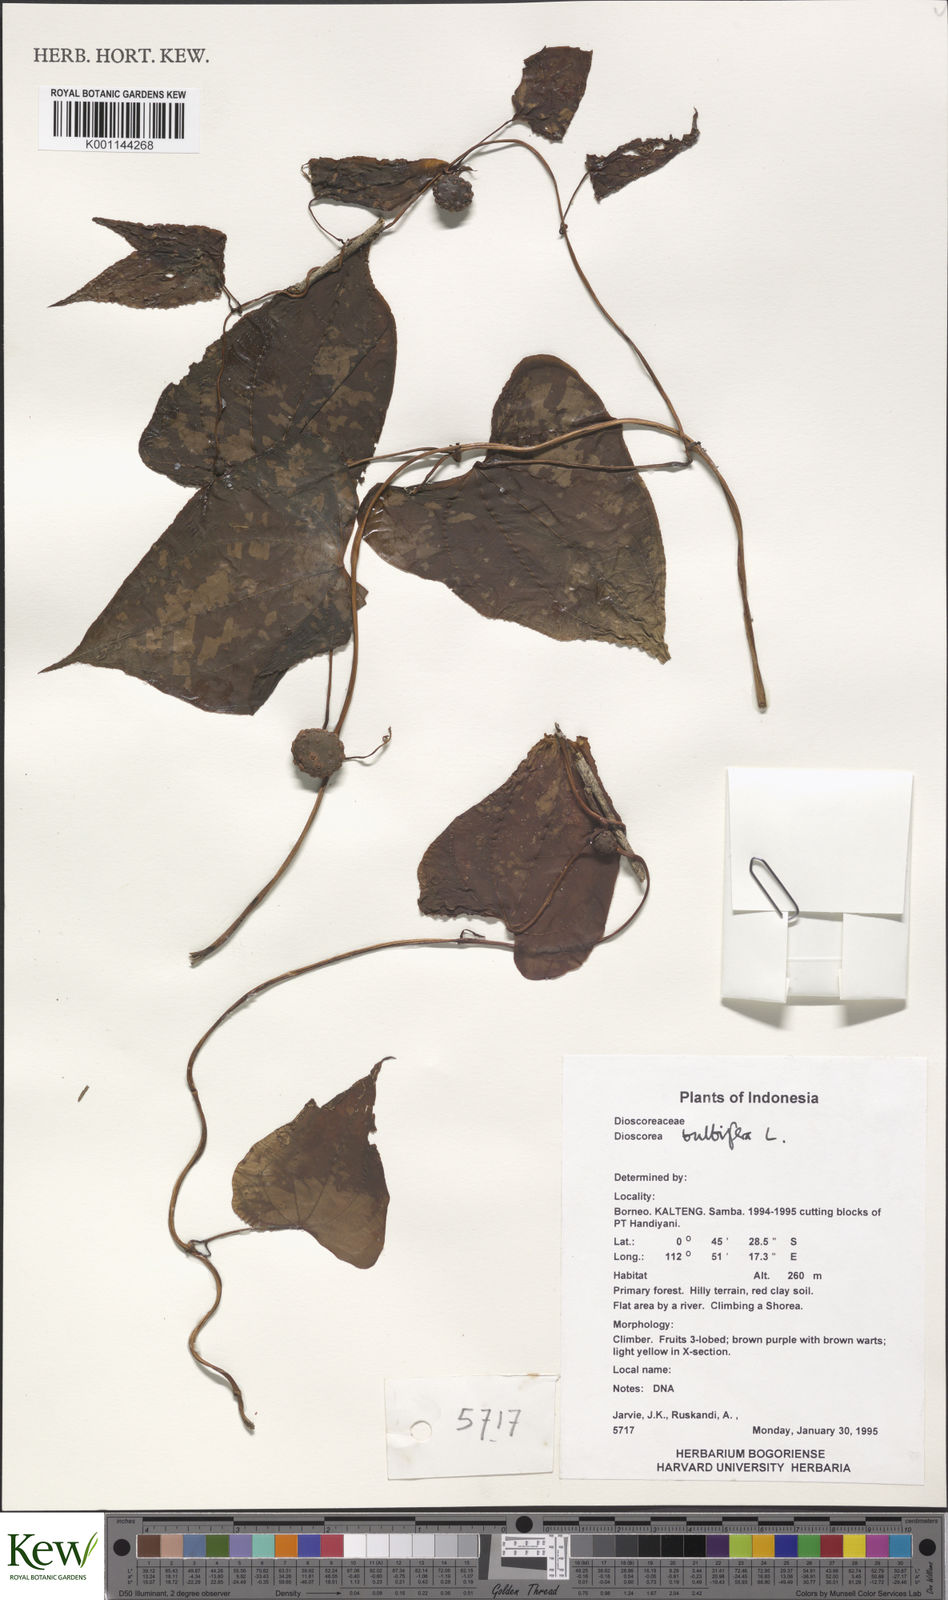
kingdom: Plantae
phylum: Tracheophyta
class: Liliopsida
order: Dioscoreales
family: Dioscoreaceae
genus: Dioscorea
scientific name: Dioscorea bulbifera
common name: Air yam
